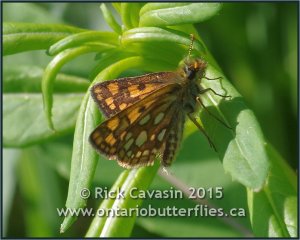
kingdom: Animalia
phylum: Arthropoda
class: Insecta
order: Lepidoptera
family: Hesperiidae
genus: Carterocephalus
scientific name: Carterocephalus palaemon
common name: Chequered Skipper
